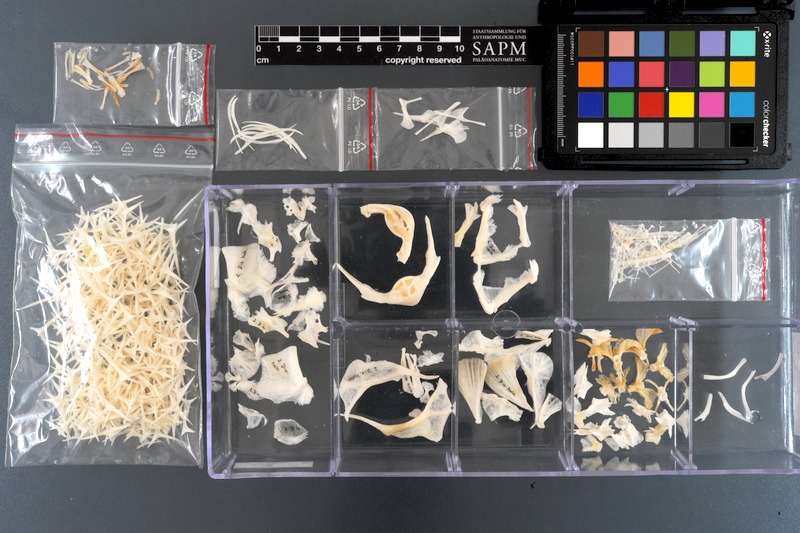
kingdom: Animalia
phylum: Chordata
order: Tetraodontiformes
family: Diodontidae
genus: Diodon
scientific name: Diodon holocanthus
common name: Balloonfish
